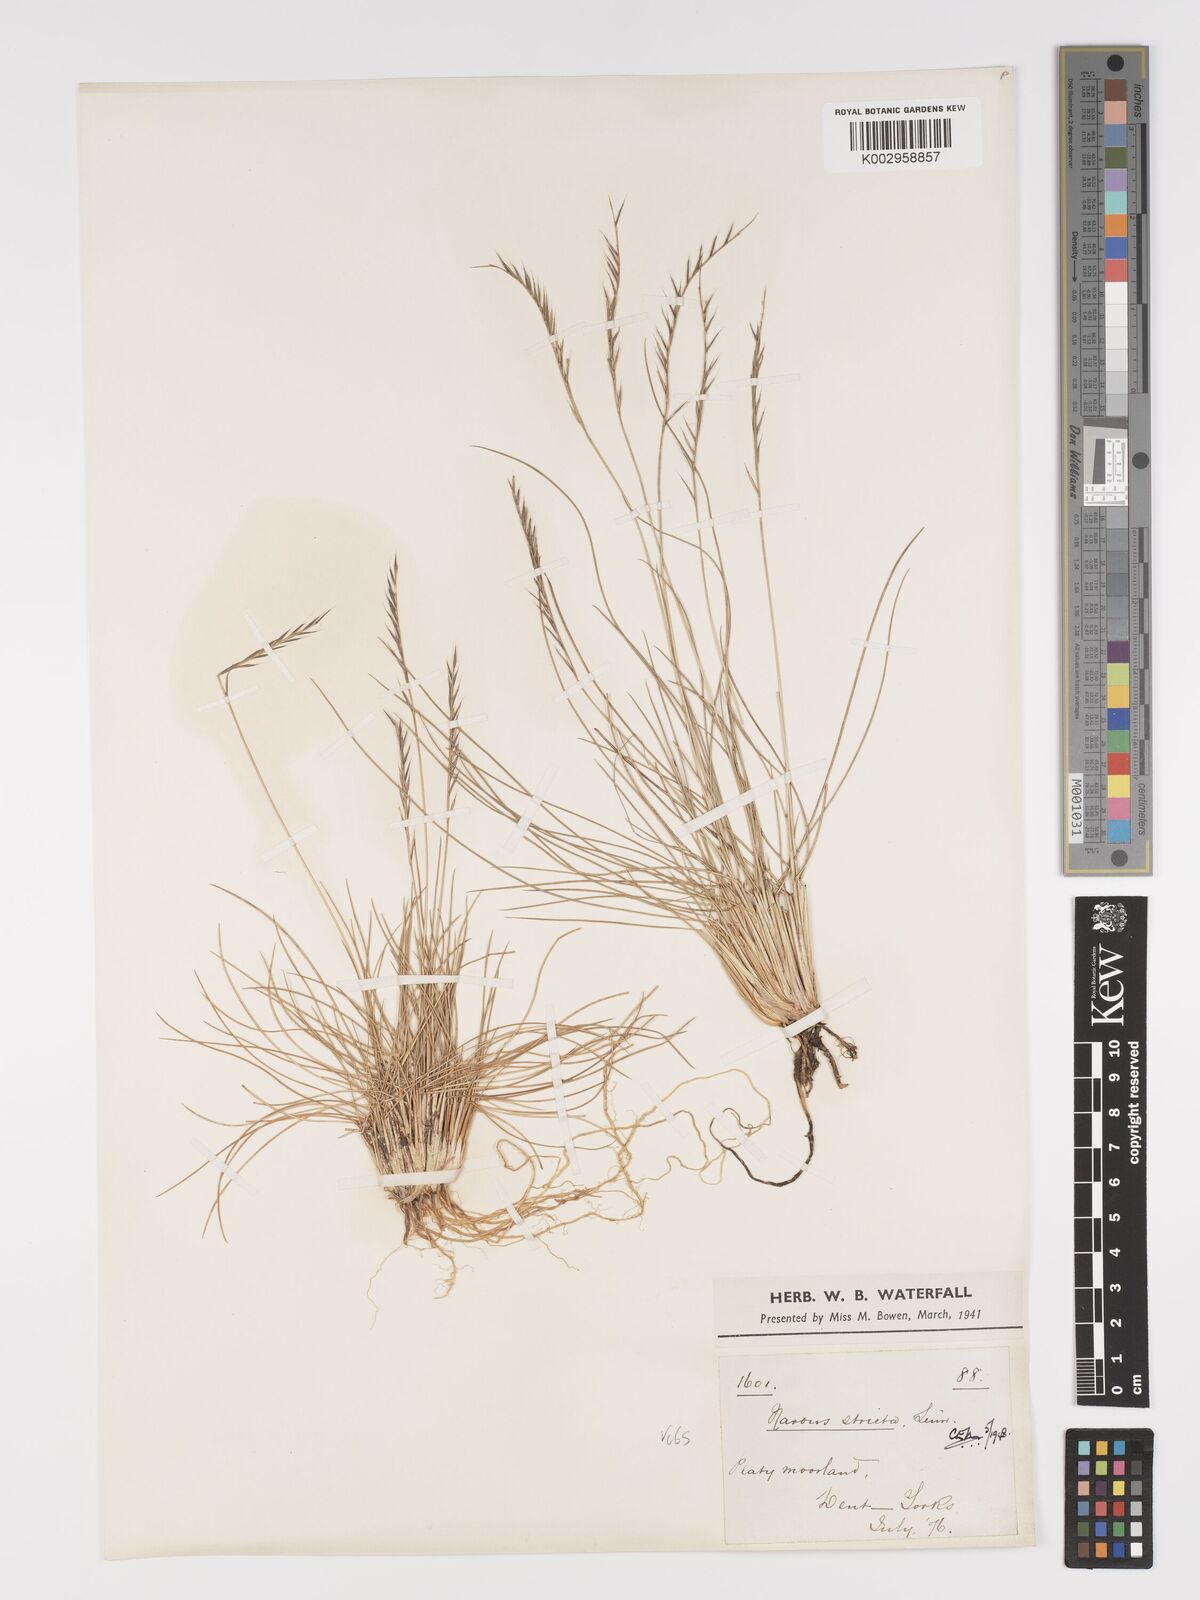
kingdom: Plantae
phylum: Tracheophyta
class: Liliopsida
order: Poales
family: Poaceae
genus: Nardus
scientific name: Nardus stricta
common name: Mat-grass
